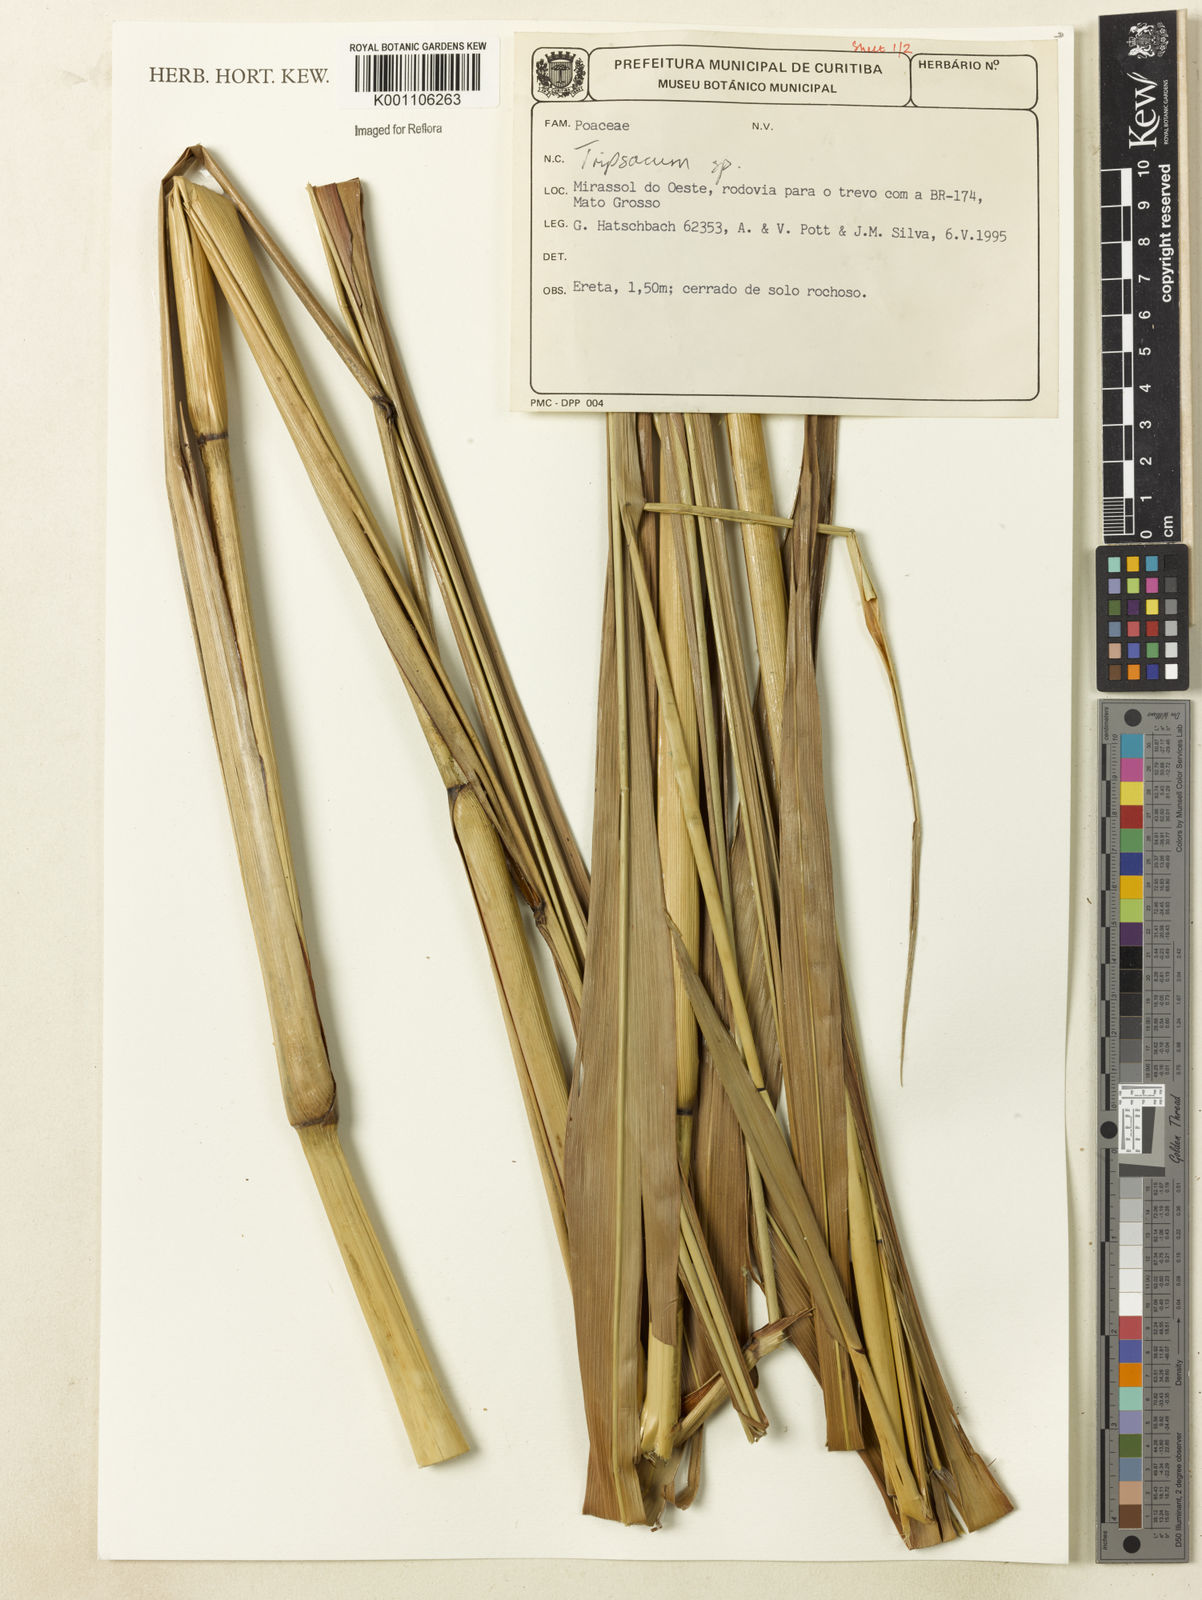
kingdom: Plantae
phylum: Tracheophyta
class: Liliopsida
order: Poales
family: Poaceae
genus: Tripsacum
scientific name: Tripsacum
